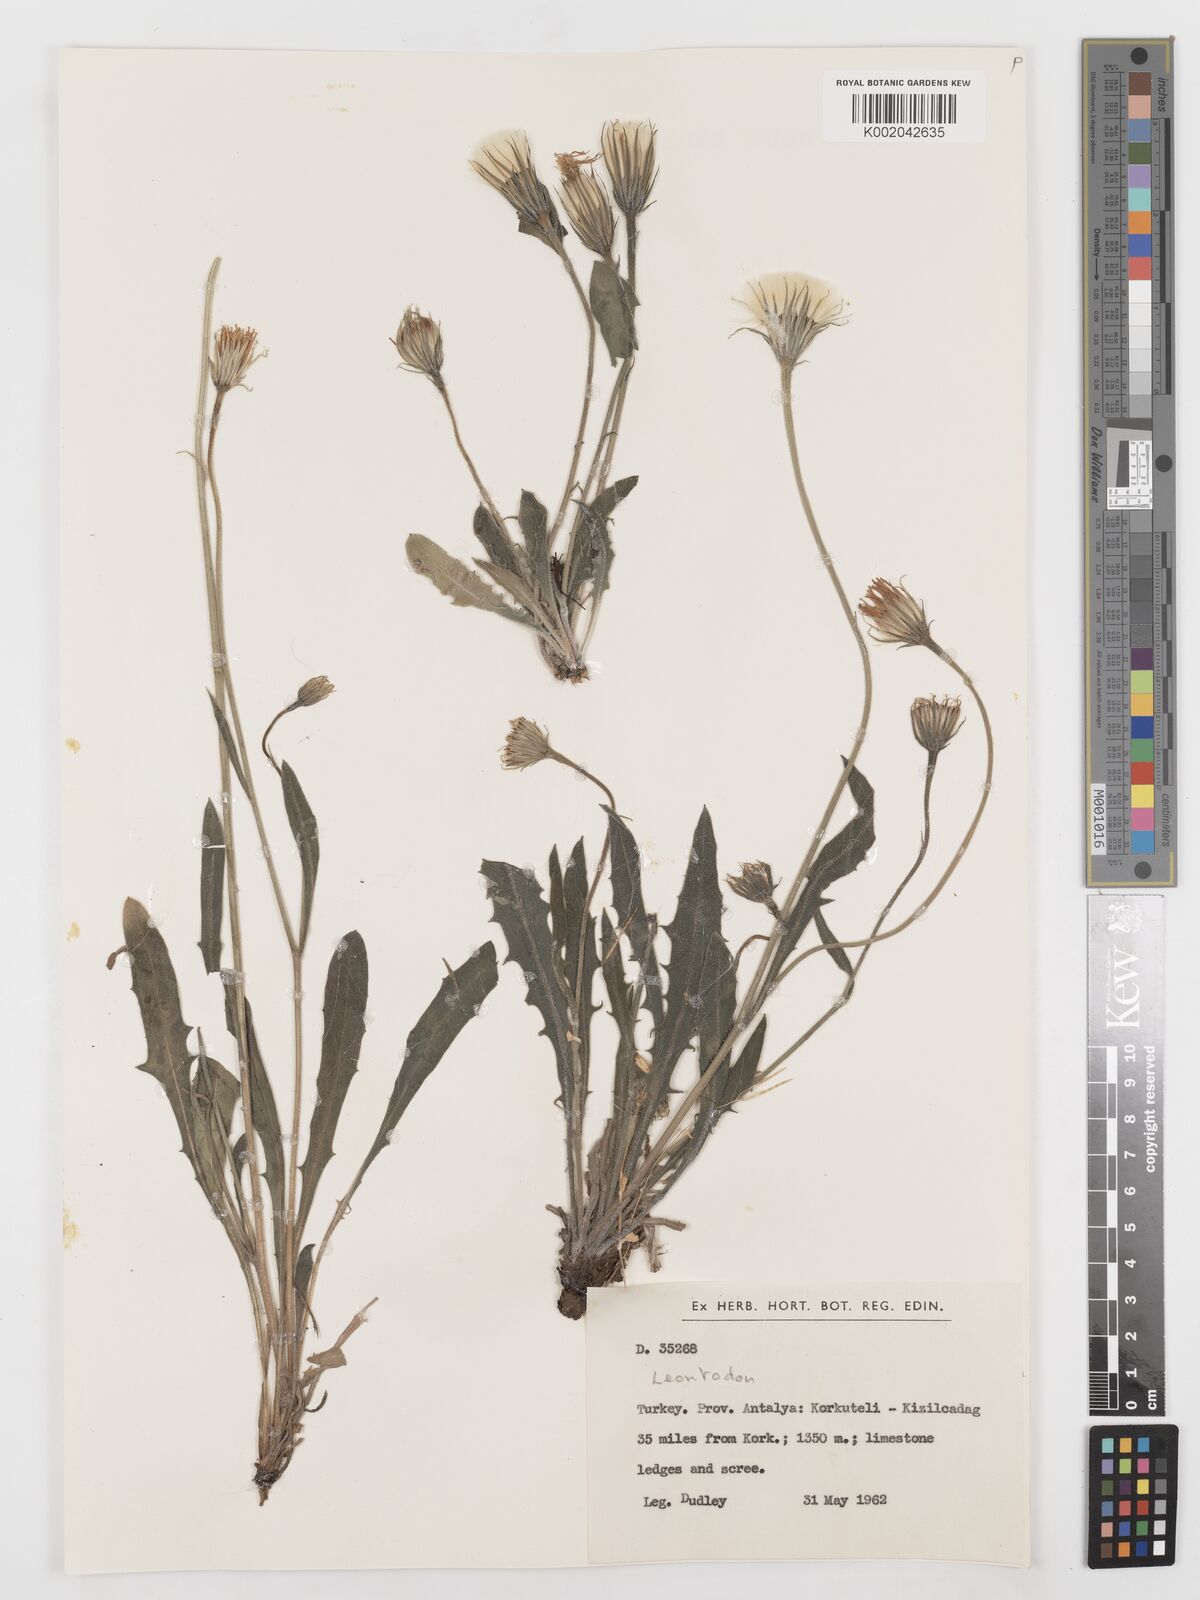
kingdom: Plantae
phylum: Tracheophyta
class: Magnoliopsida
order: Asterales
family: Asteraceae
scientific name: Asteraceae
